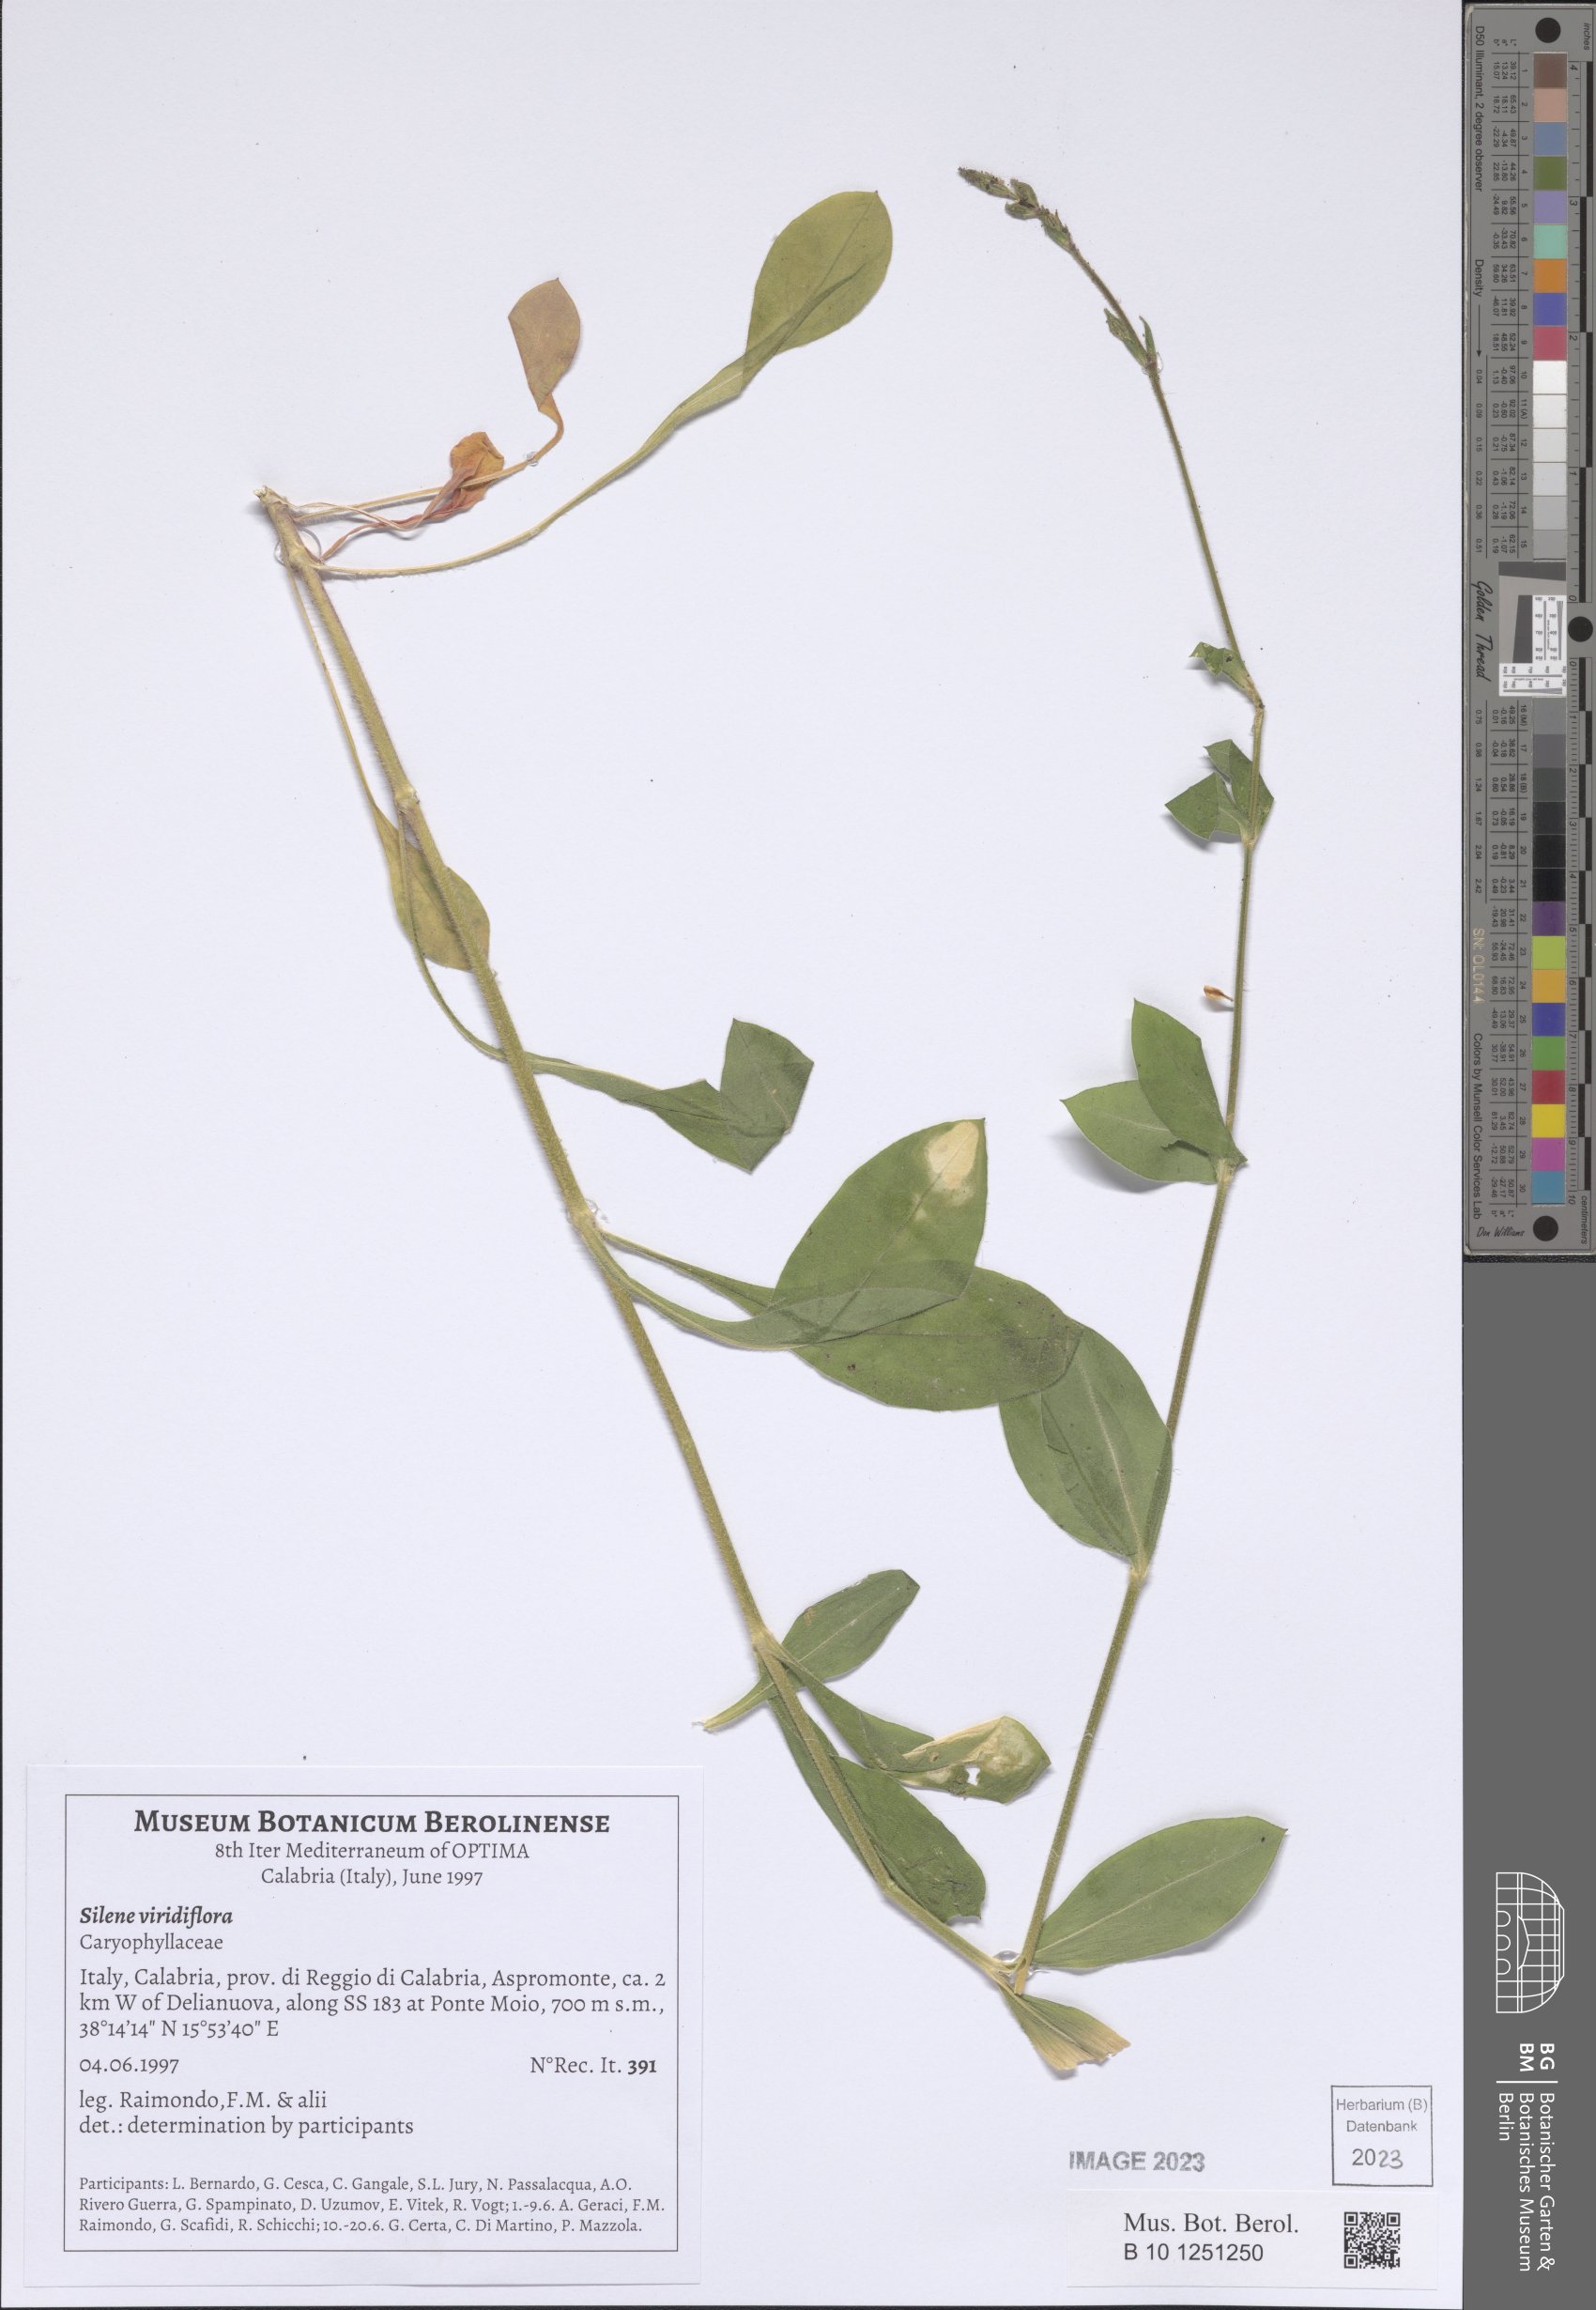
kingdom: Plantae
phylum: Tracheophyta
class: Magnoliopsida
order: Caryophyllales
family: Caryophyllaceae
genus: Silene
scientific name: Silene viridiflora
